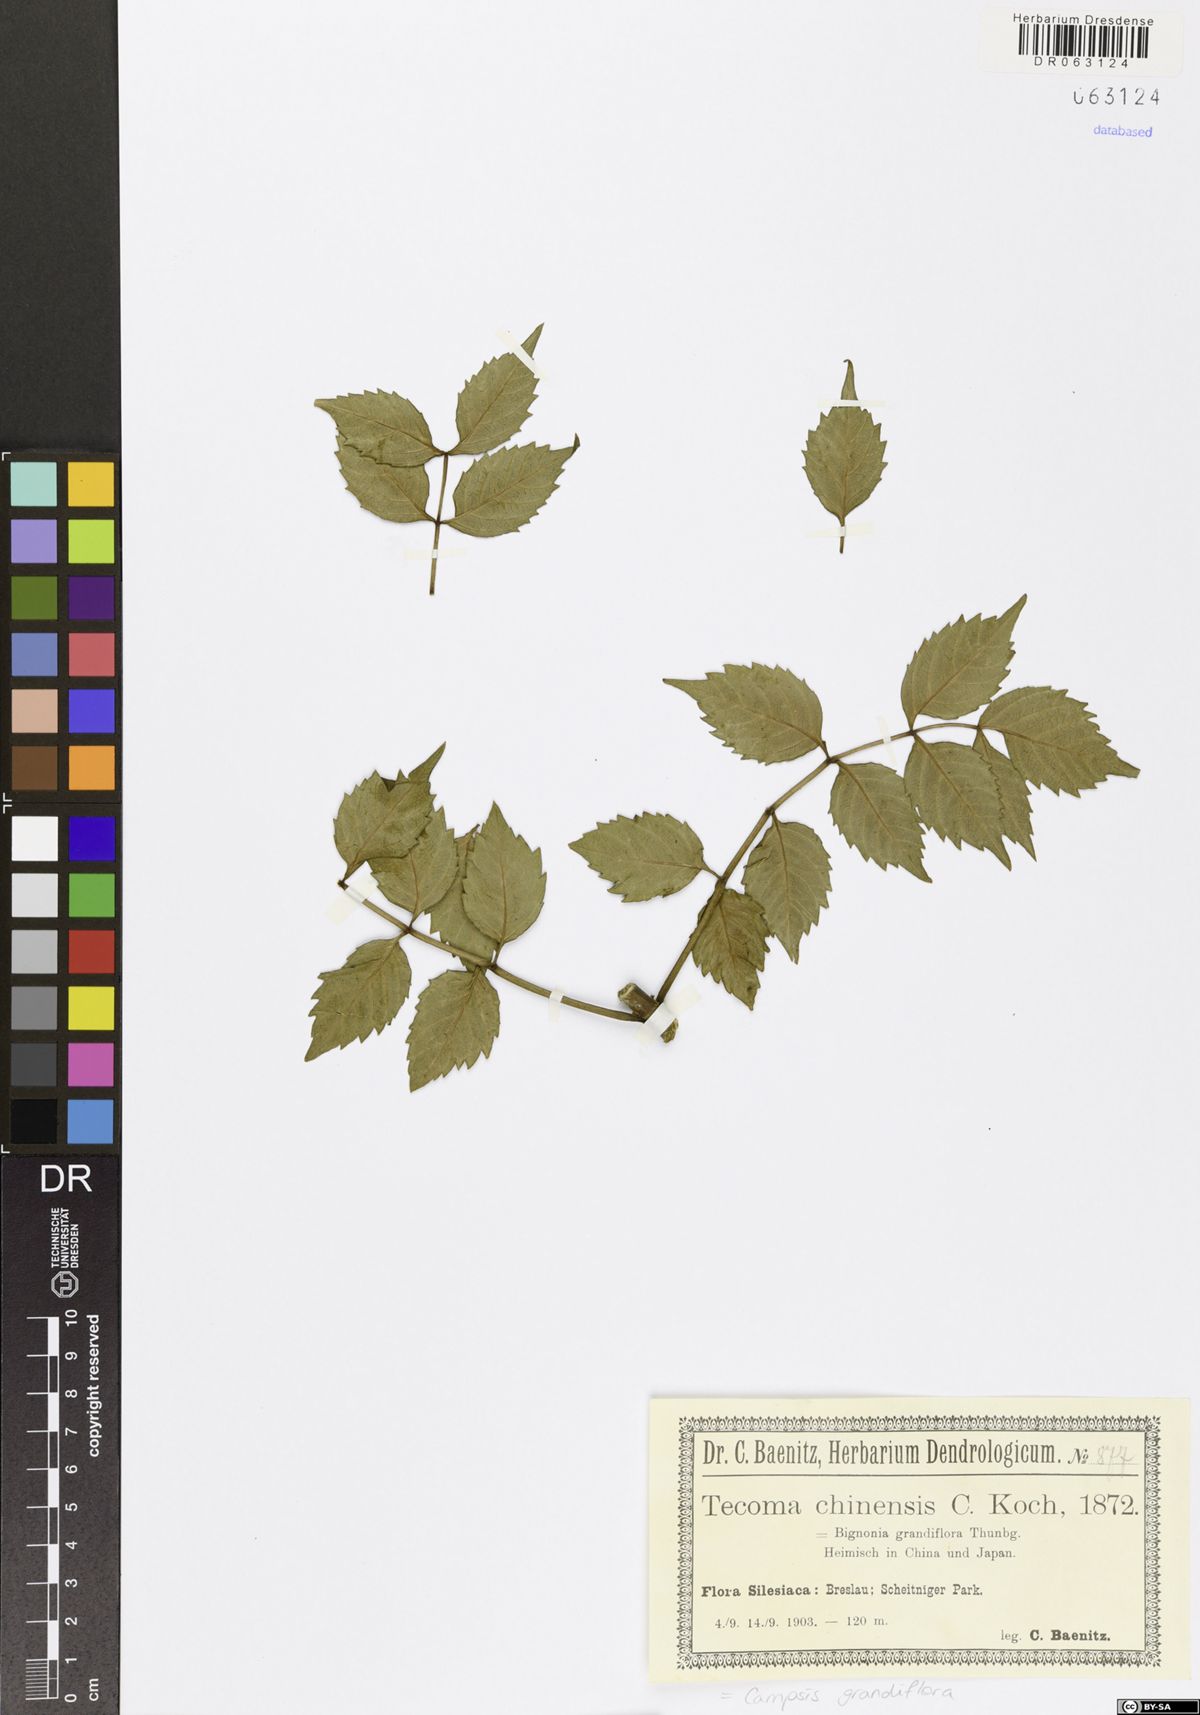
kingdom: Plantae
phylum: Tracheophyta
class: Magnoliopsida
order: Lamiales
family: Bignoniaceae
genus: Campsis
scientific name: Campsis grandiflora
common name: Chinese trumpet-creeper
